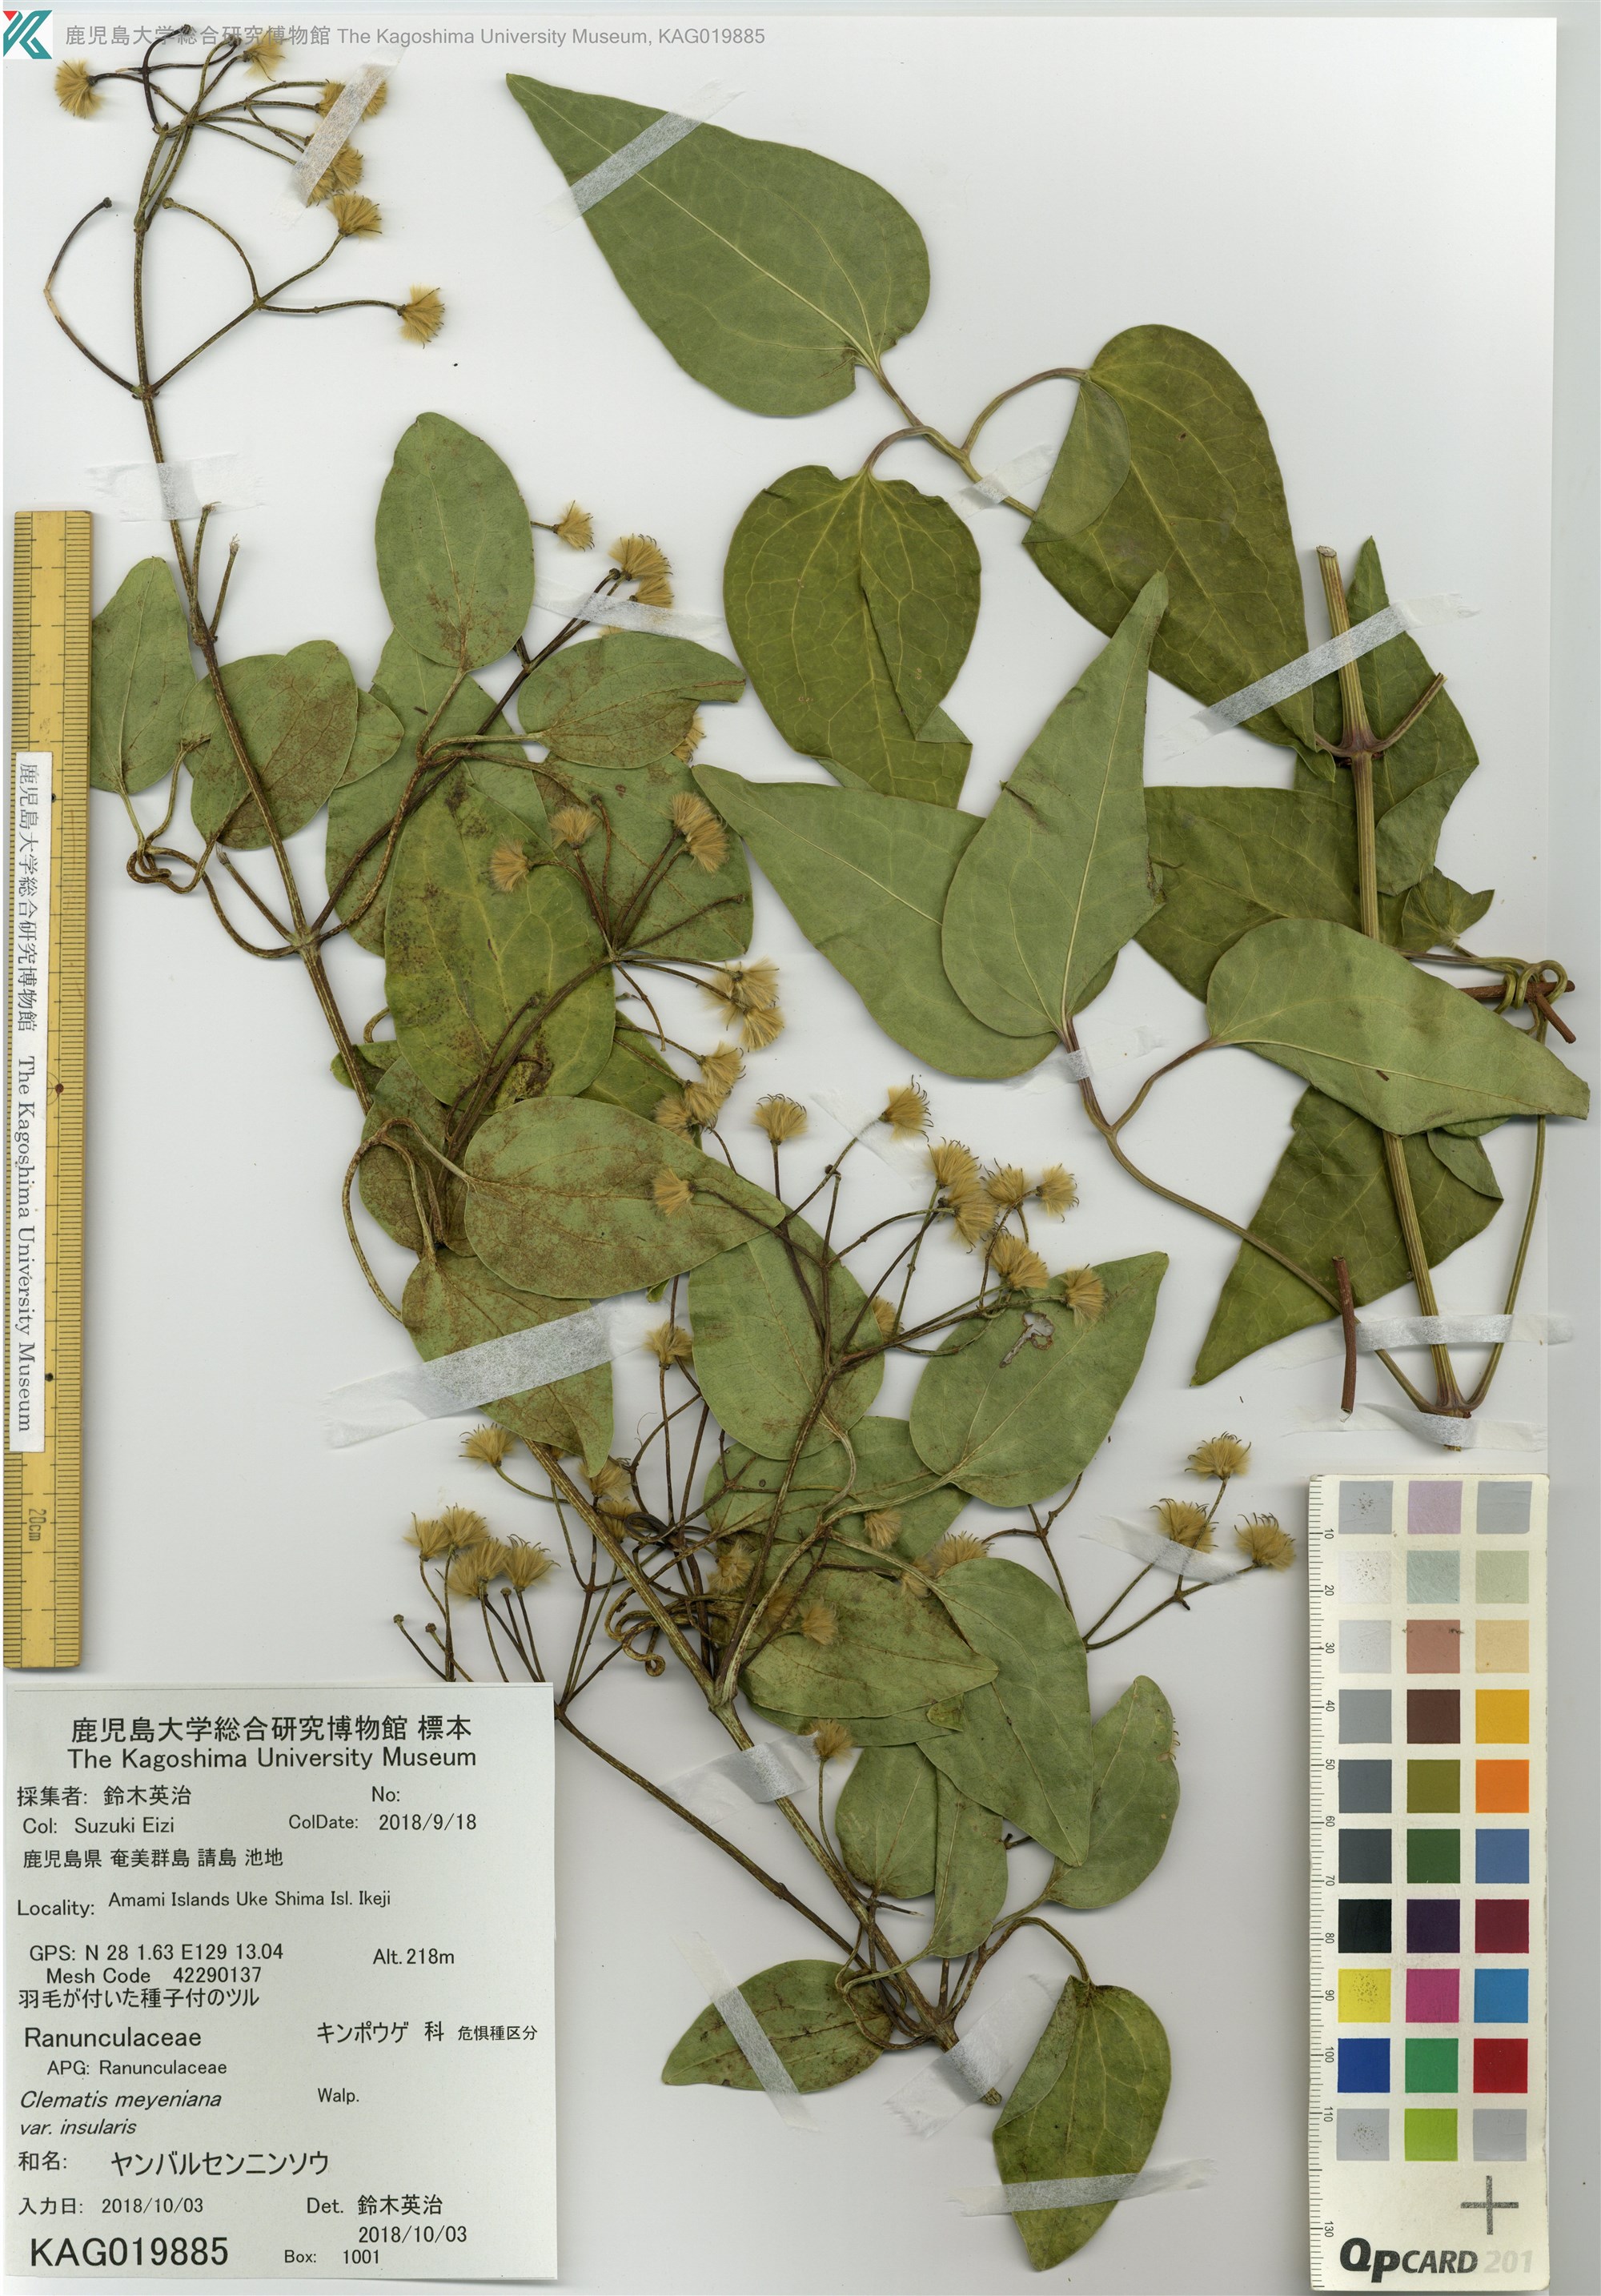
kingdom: Plantae
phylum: Tracheophyta
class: Magnoliopsida
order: Ranunculales
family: Ranunculaceae
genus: Clematis
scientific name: Clematis meyeniana
